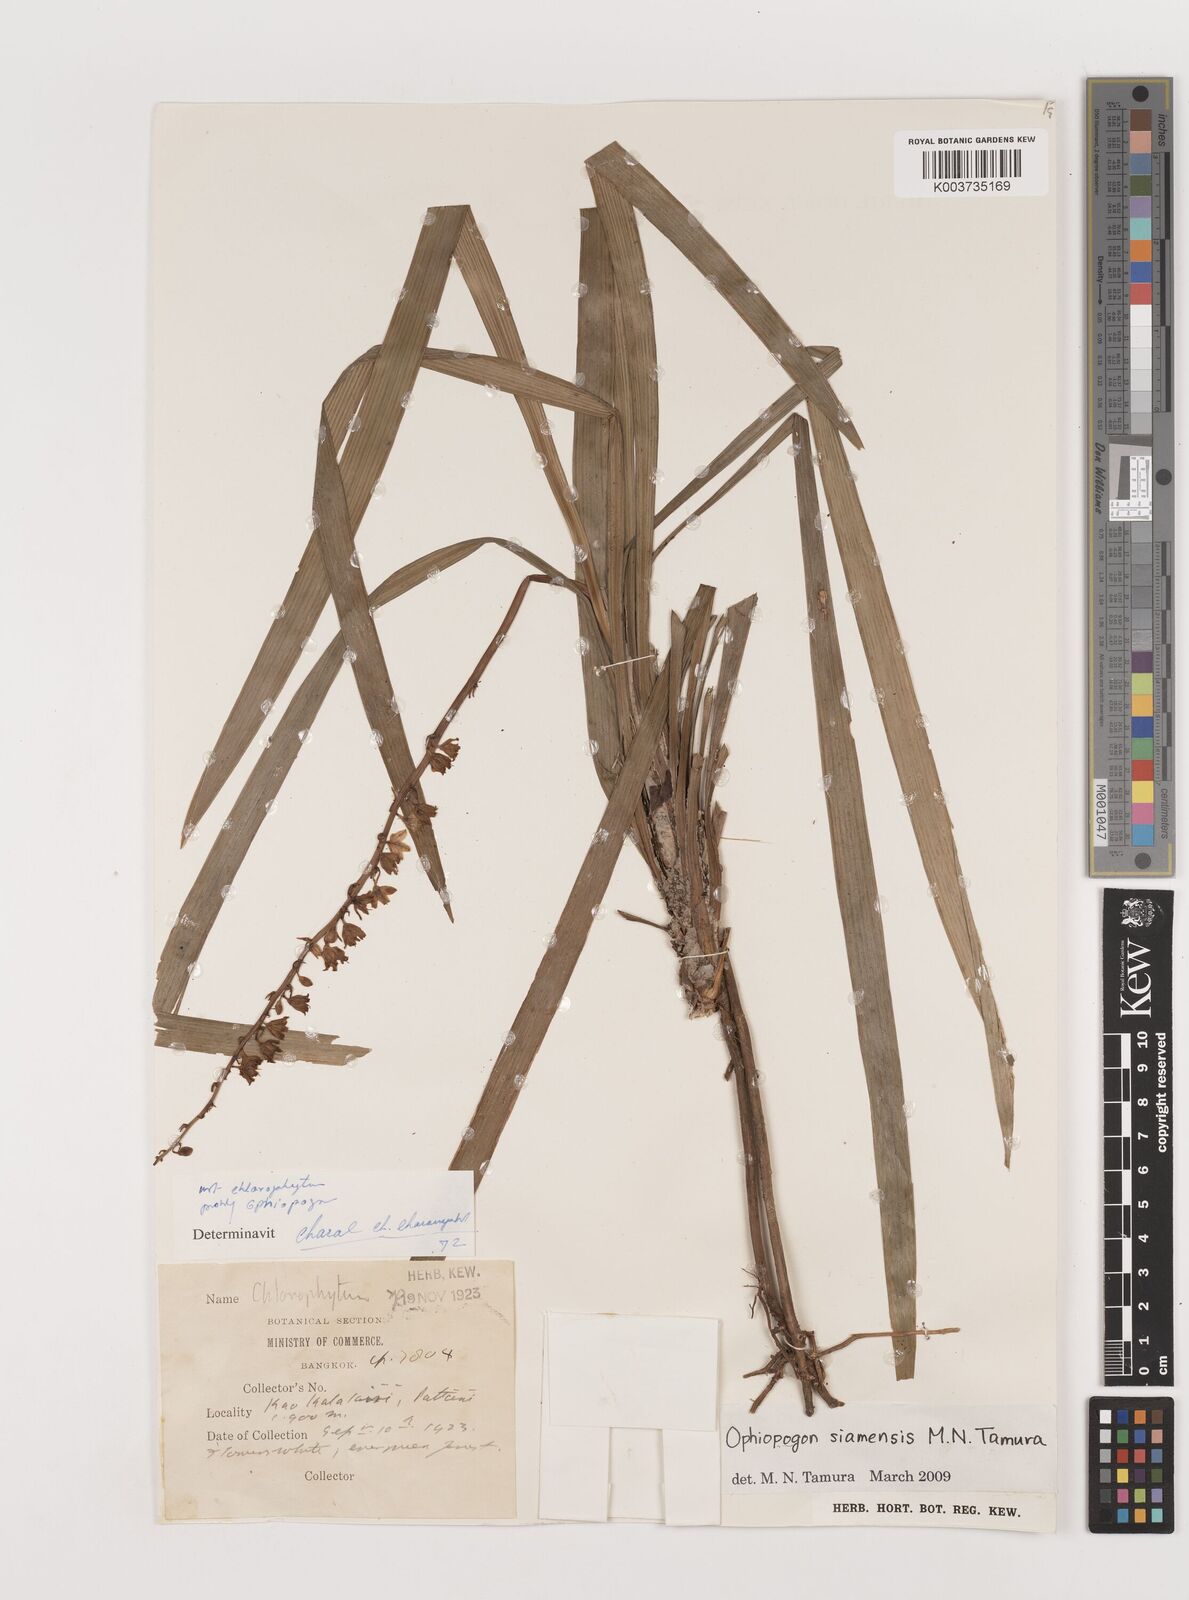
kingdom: Plantae
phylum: Tracheophyta
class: Liliopsida
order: Asparagales
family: Asparagaceae
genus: Ophiopogon
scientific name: Ophiopogon siamensis
